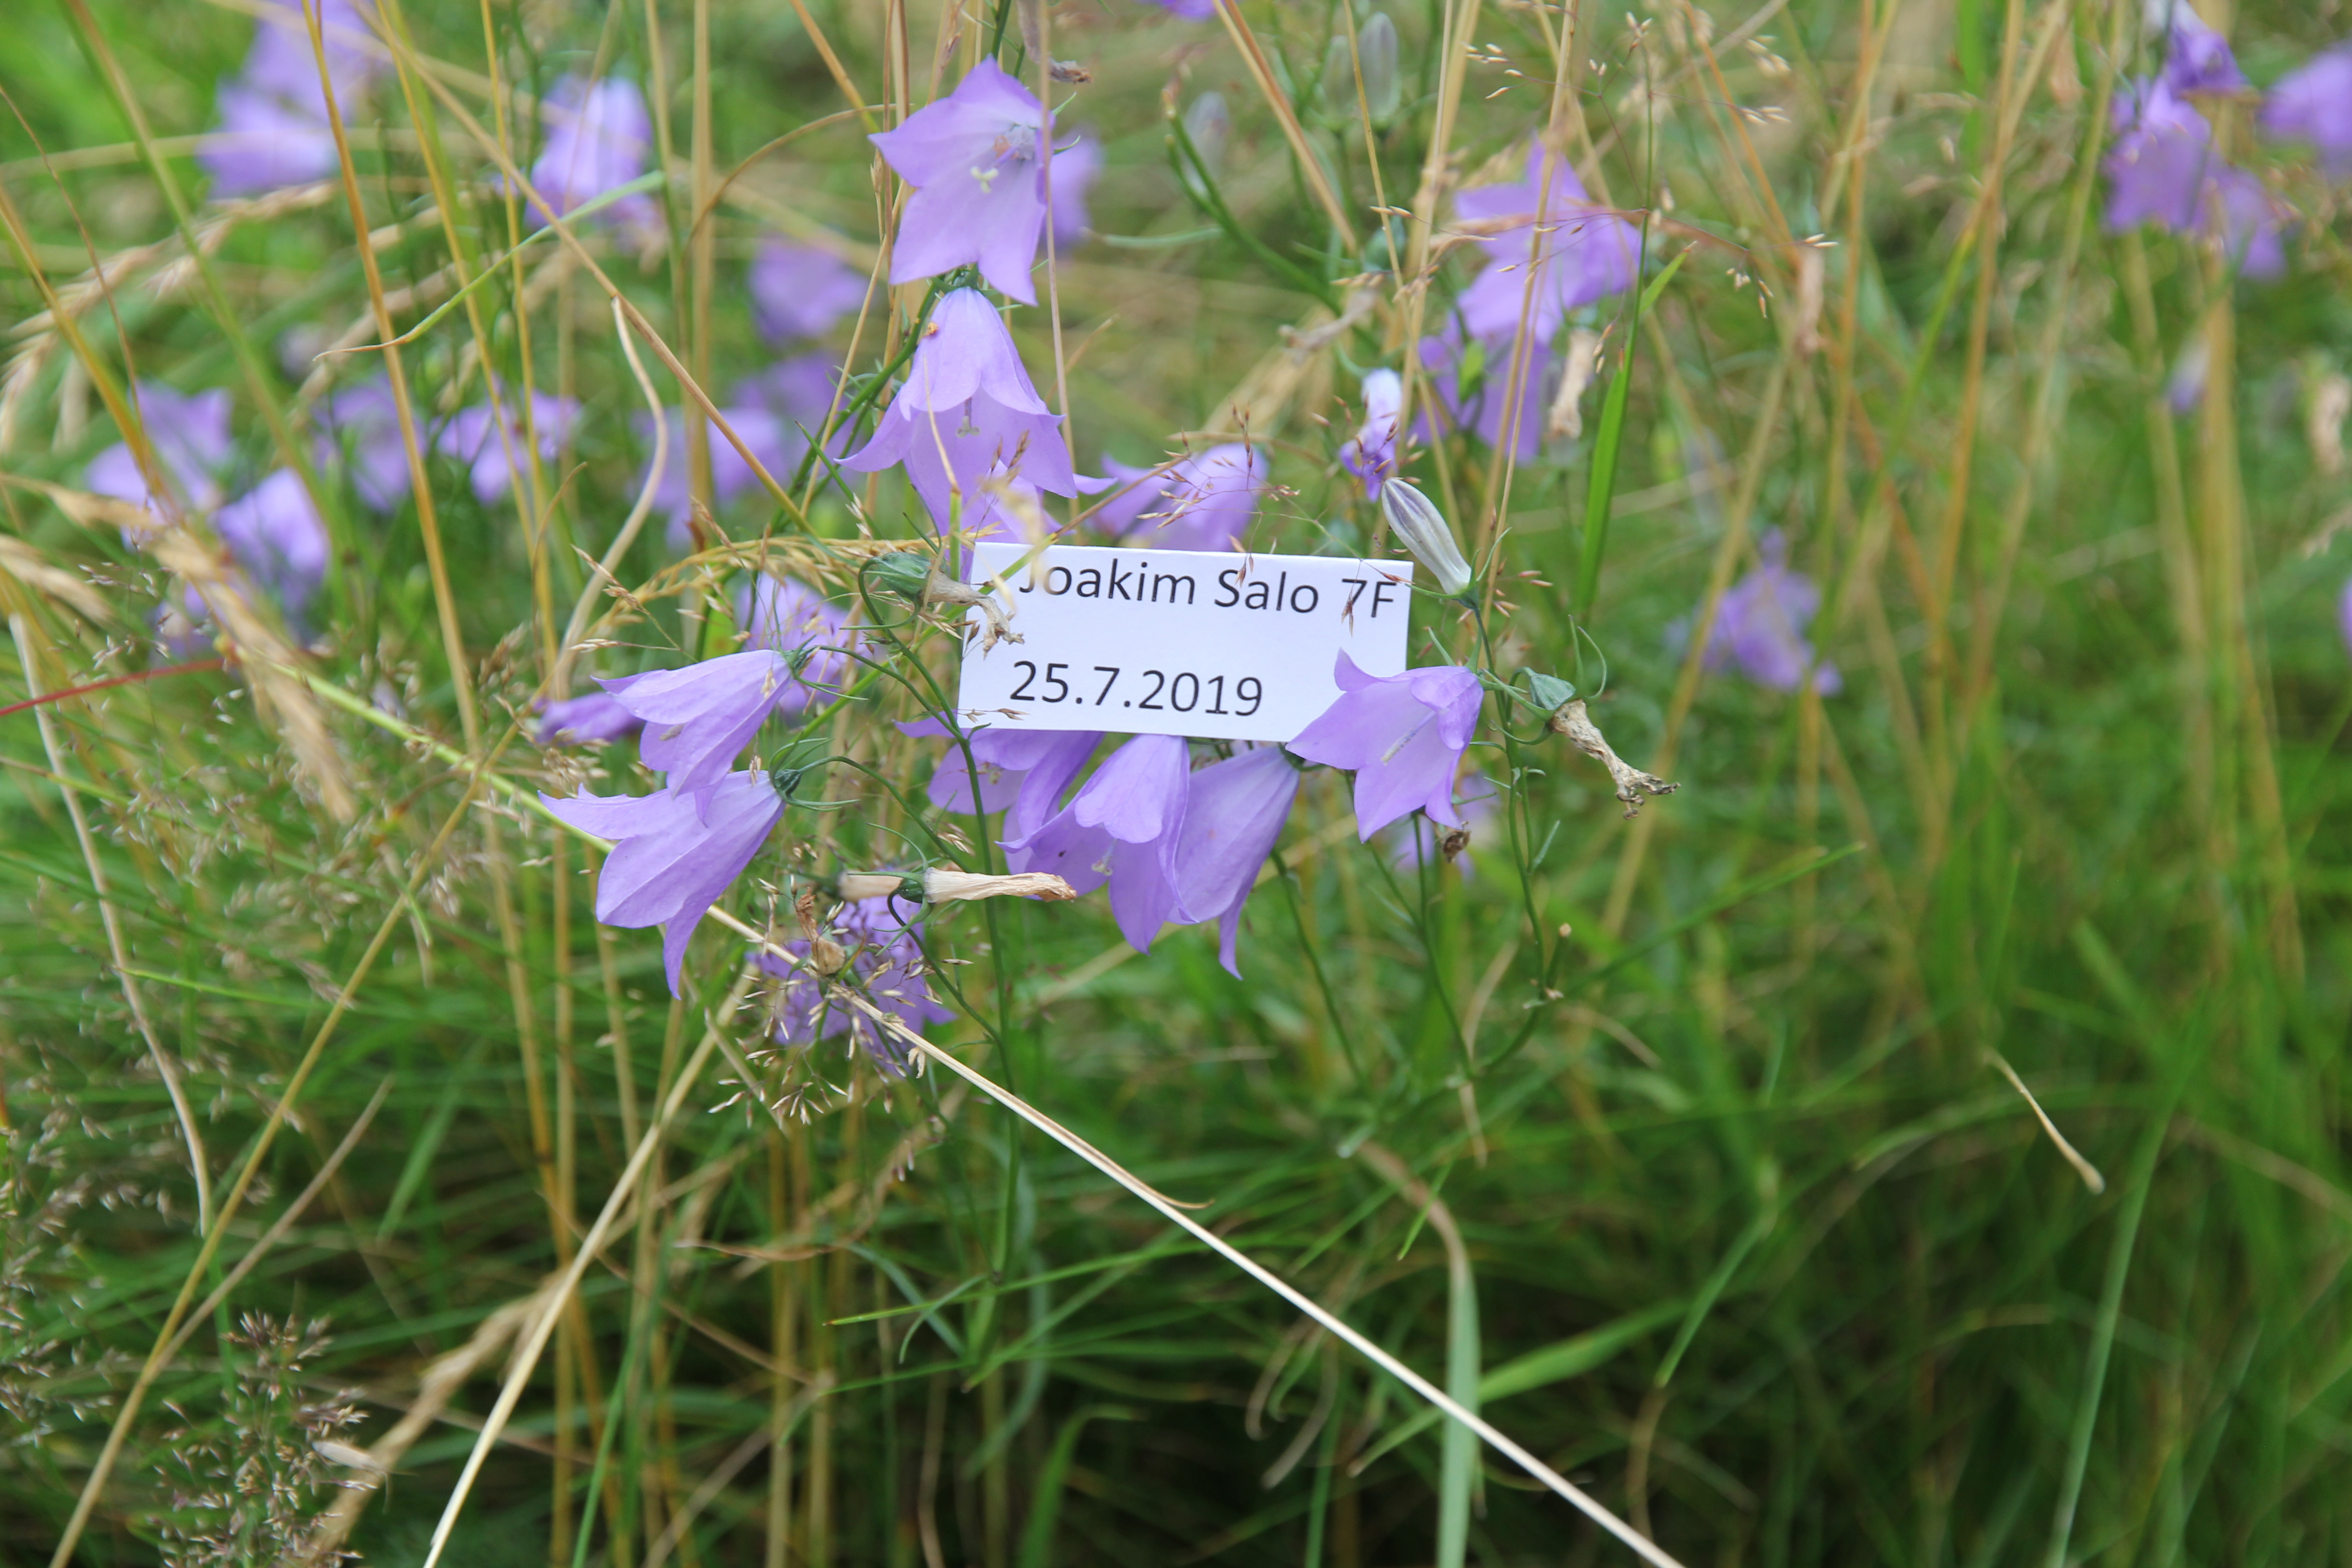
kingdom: Plantae
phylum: Tracheophyta
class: Magnoliopsida
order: Asterales
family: Campanulaceae
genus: Campanula
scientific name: Campanula rotundifolia
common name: Harebell
